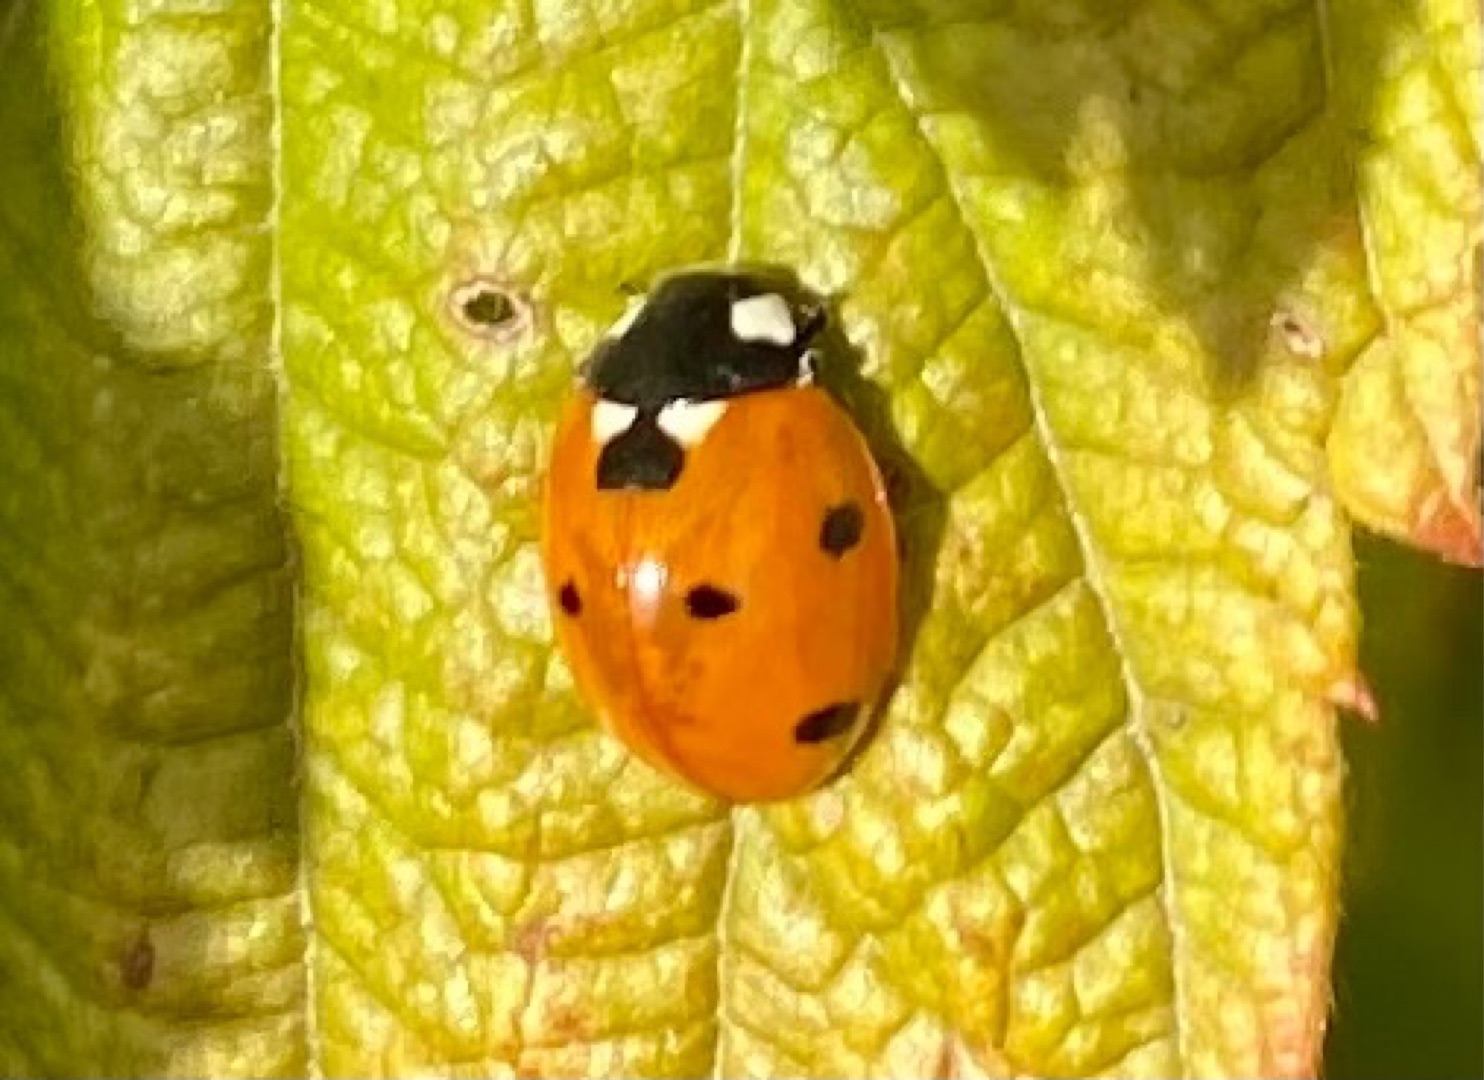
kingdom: Animalia
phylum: Arthropoda
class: Insecta
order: Coleoptera
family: Coccinellidae
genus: Coccinella
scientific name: Coccinella septempunctata
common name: Syvplettet mariehøne
